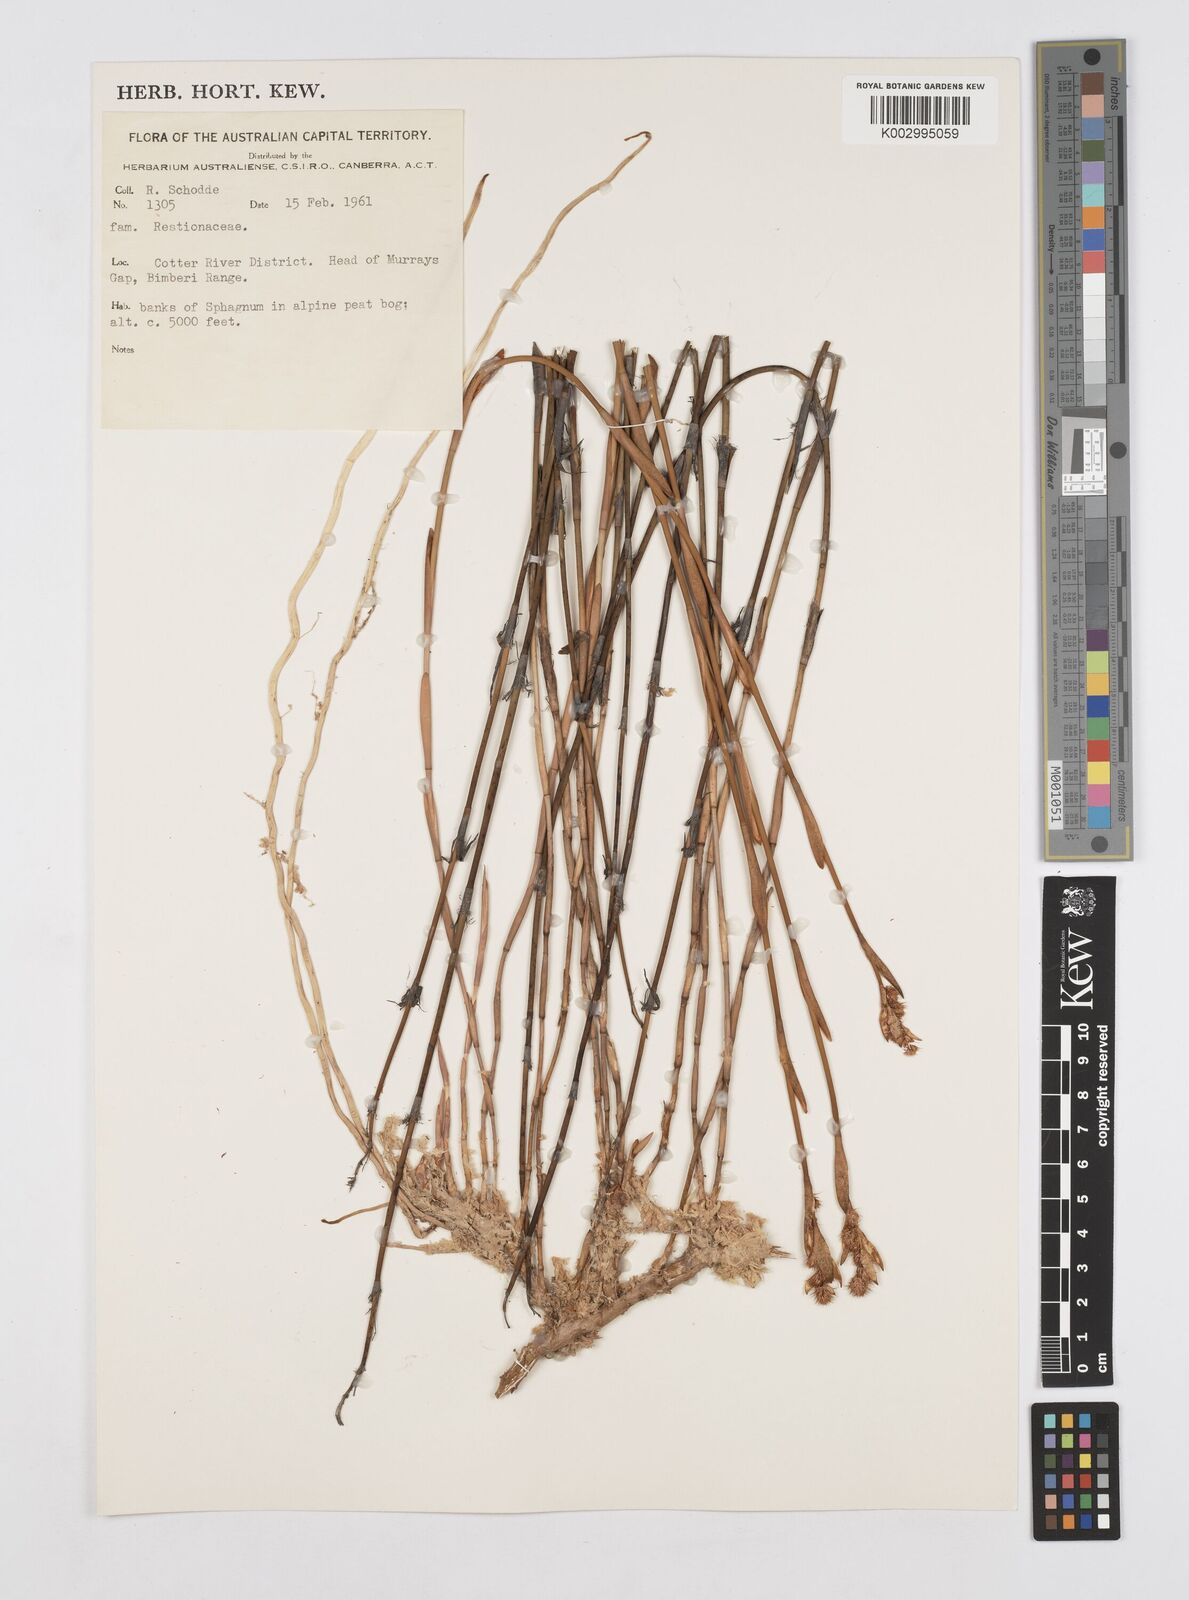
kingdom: Plantae
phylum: Tracheophyta
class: Liliopsida
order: Poales
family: Restionaceae
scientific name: Restionaceae
